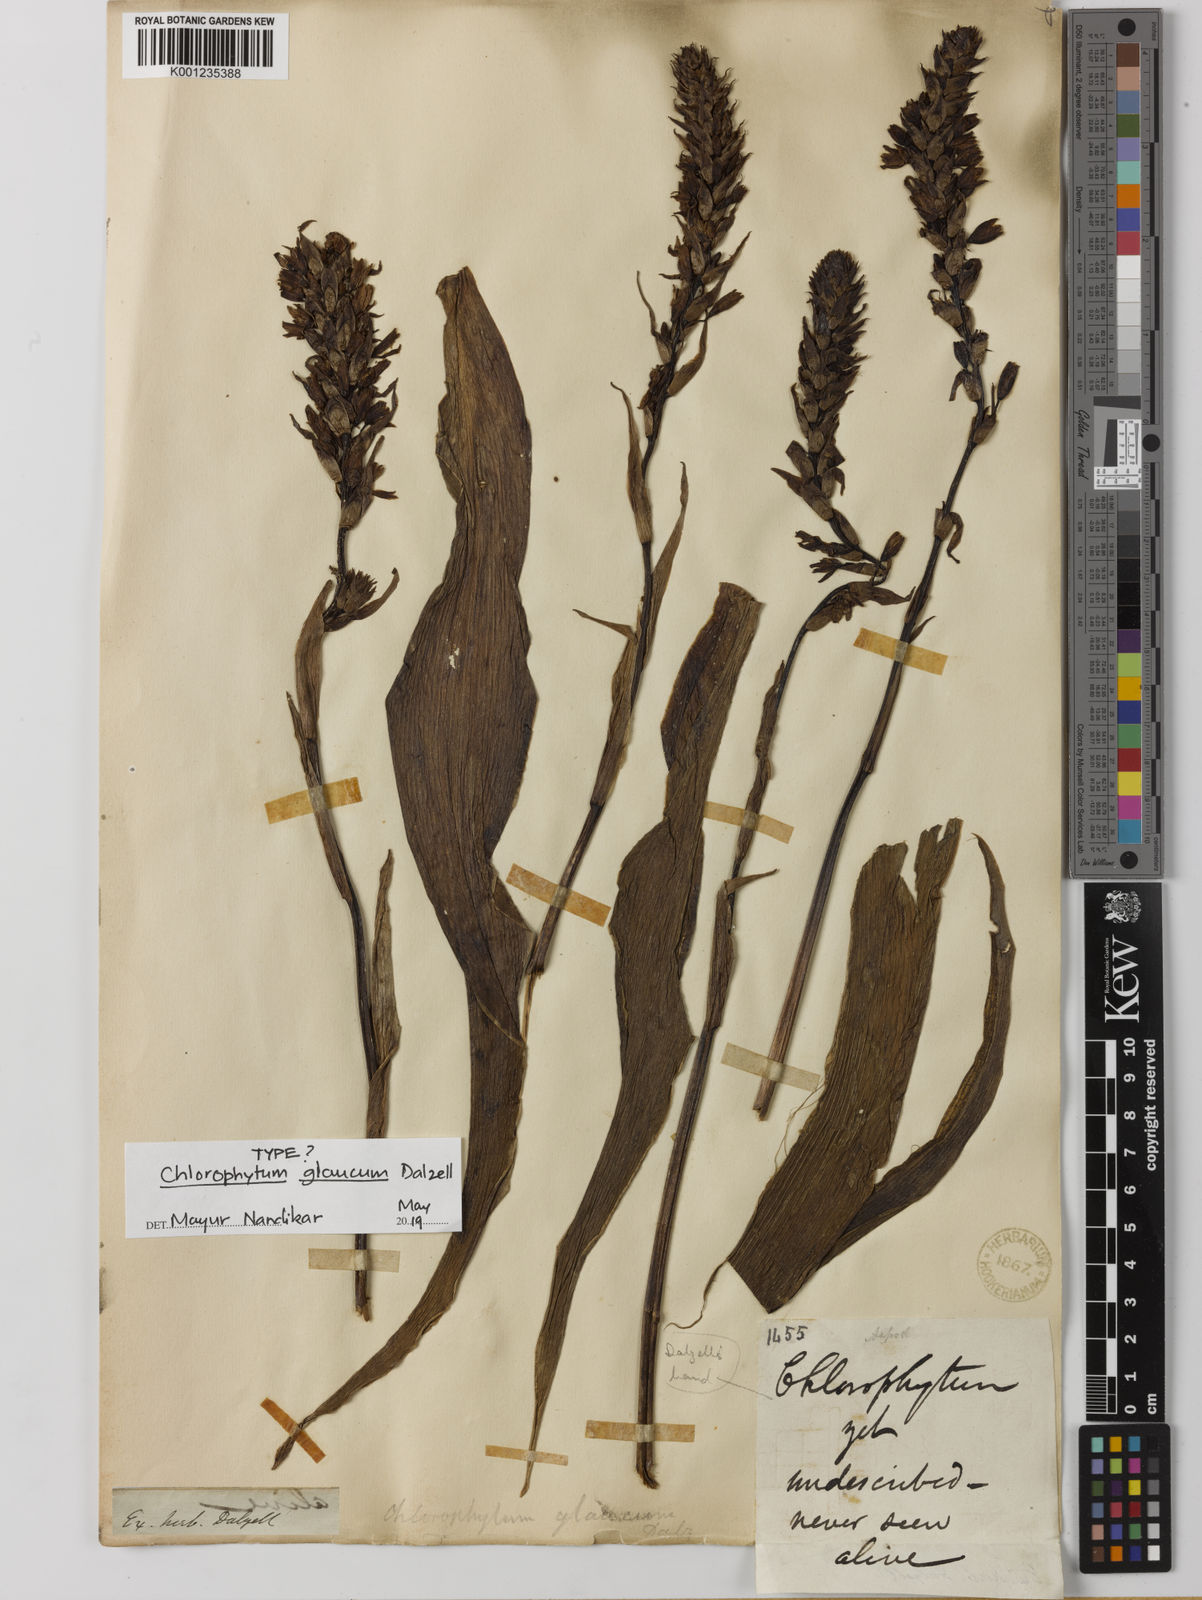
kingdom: Plantae
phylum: Tracheophyta
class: Liliopsida
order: Asparagales
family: Asparagaceae
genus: Chlorophytum
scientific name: Chlorophytum glaucum
